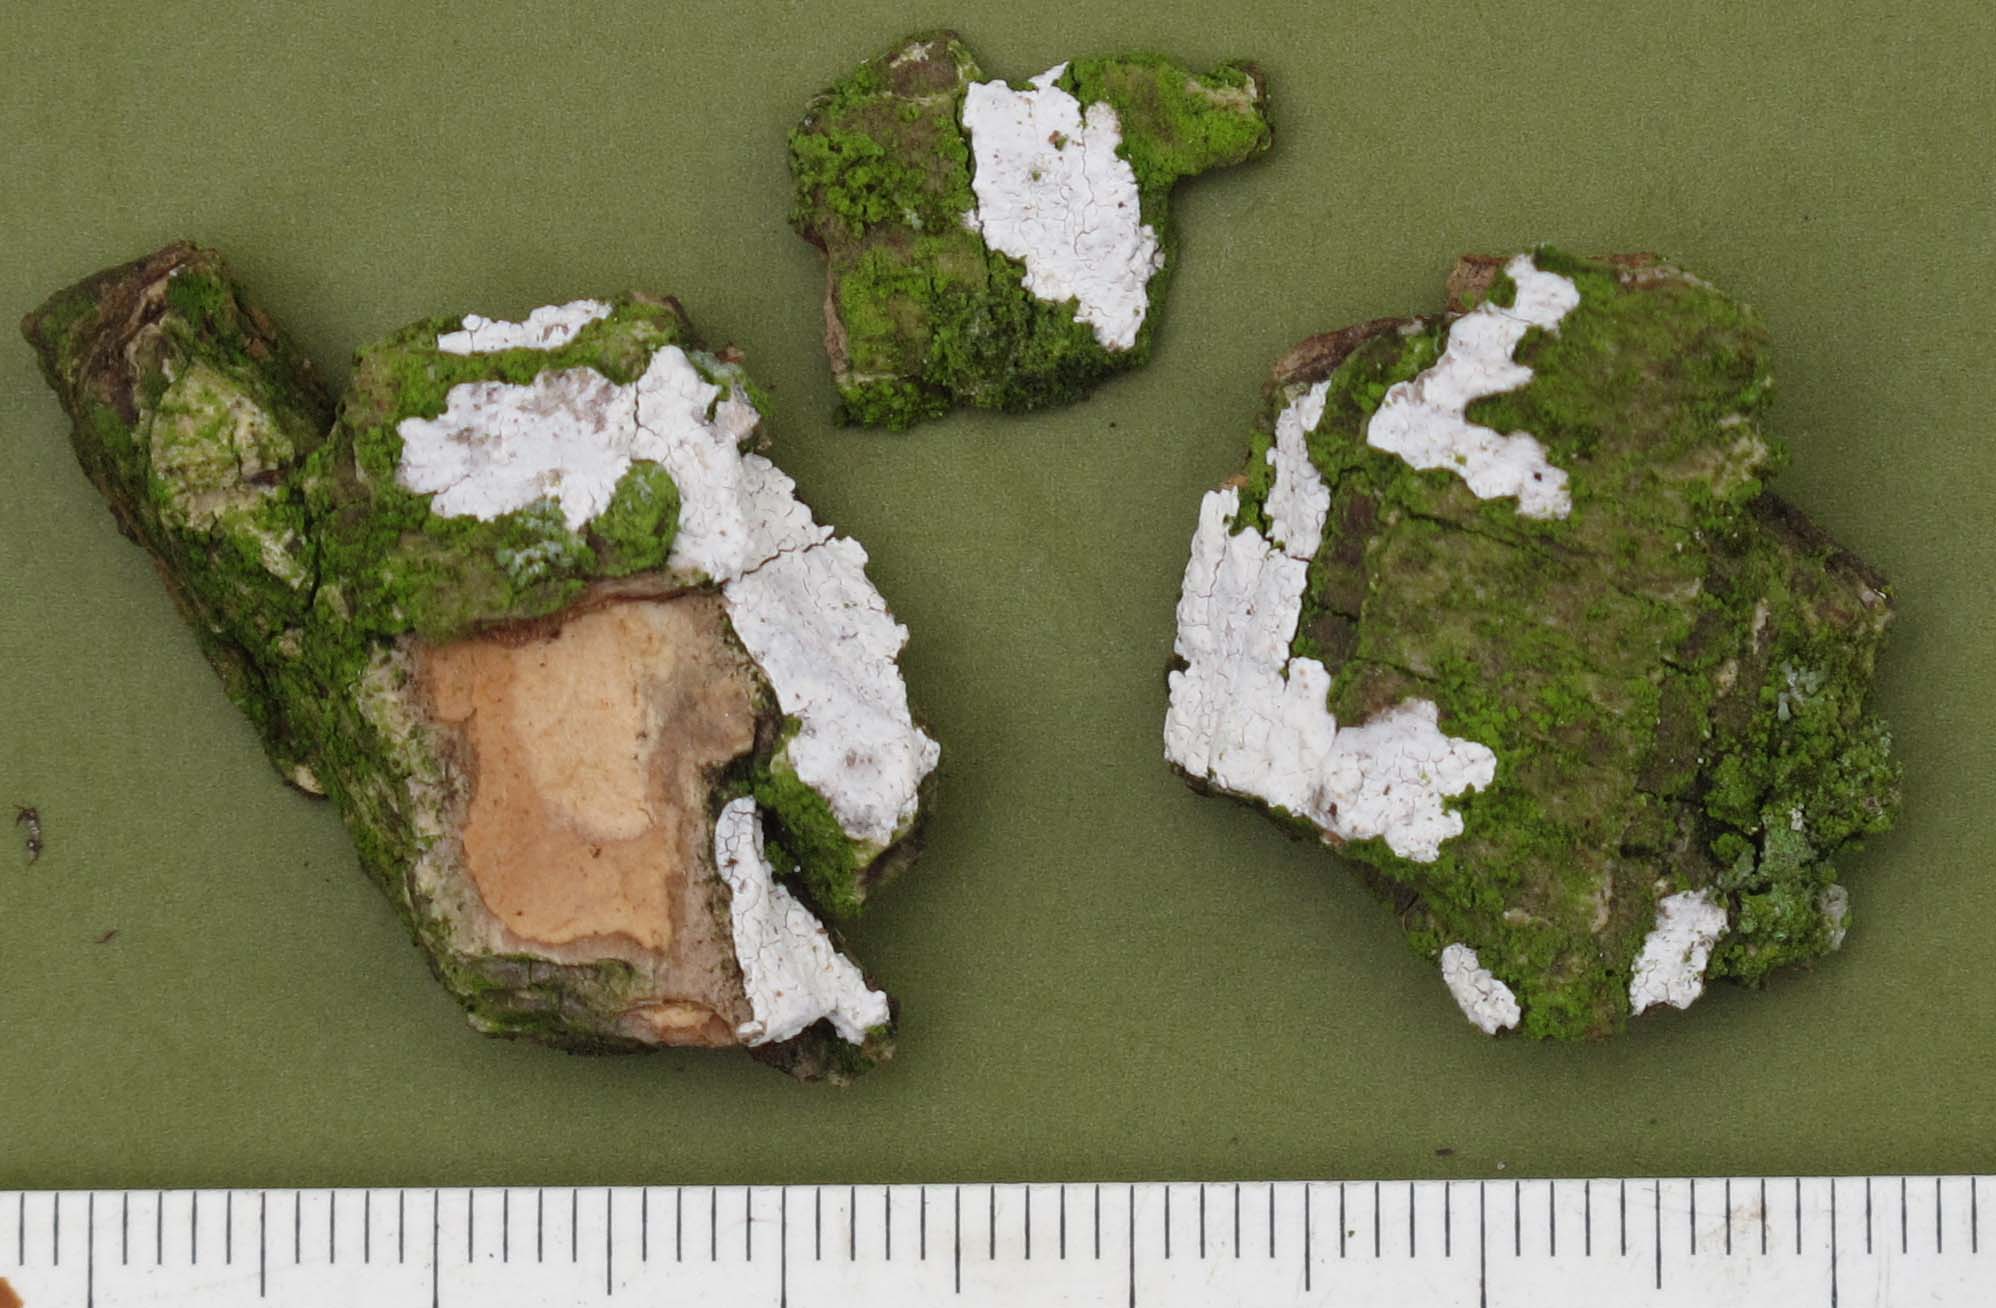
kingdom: Fungi
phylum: Basidiomycota
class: Agaricomycetes
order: Agaricales
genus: Dendrothele
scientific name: Dendrothele acerina
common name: navr-kalkplet
